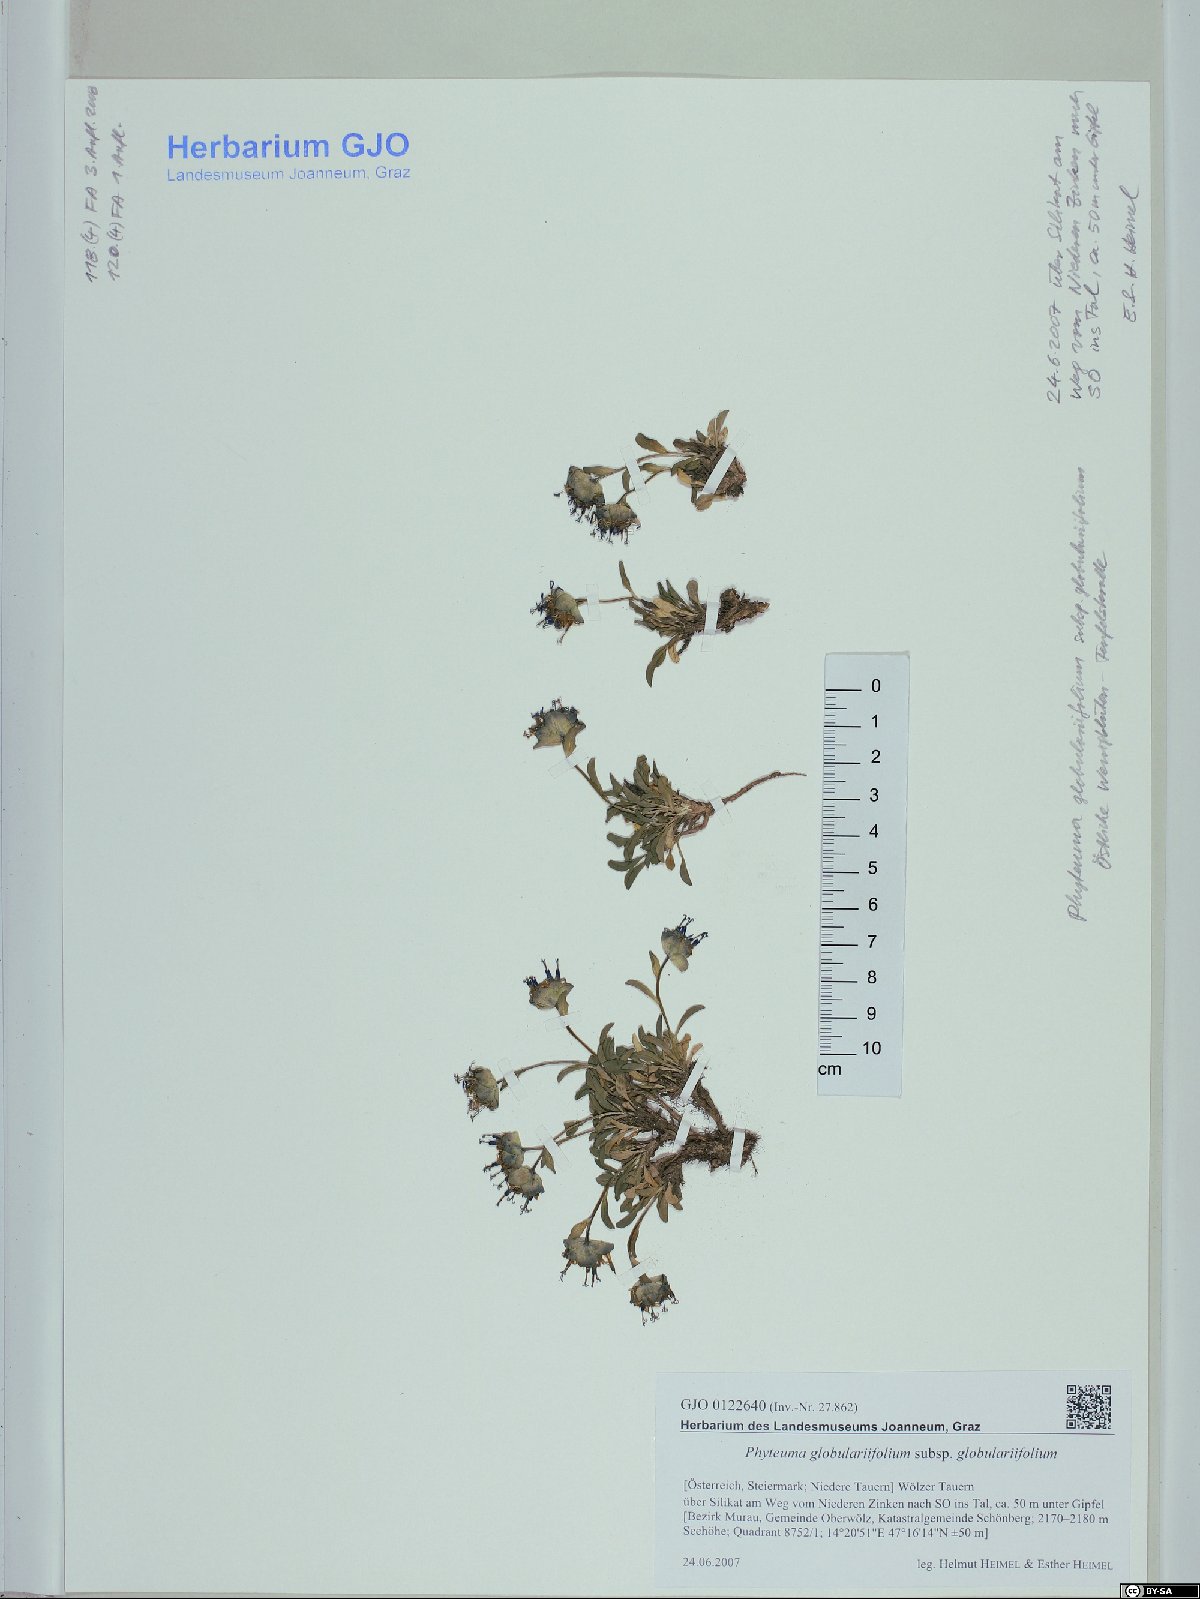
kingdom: Plantae
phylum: Tracheophyta
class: Magnoliopsida
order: Asterales
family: Campanulaceae
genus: Phyteuma
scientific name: Phyteuma globulariifolium
